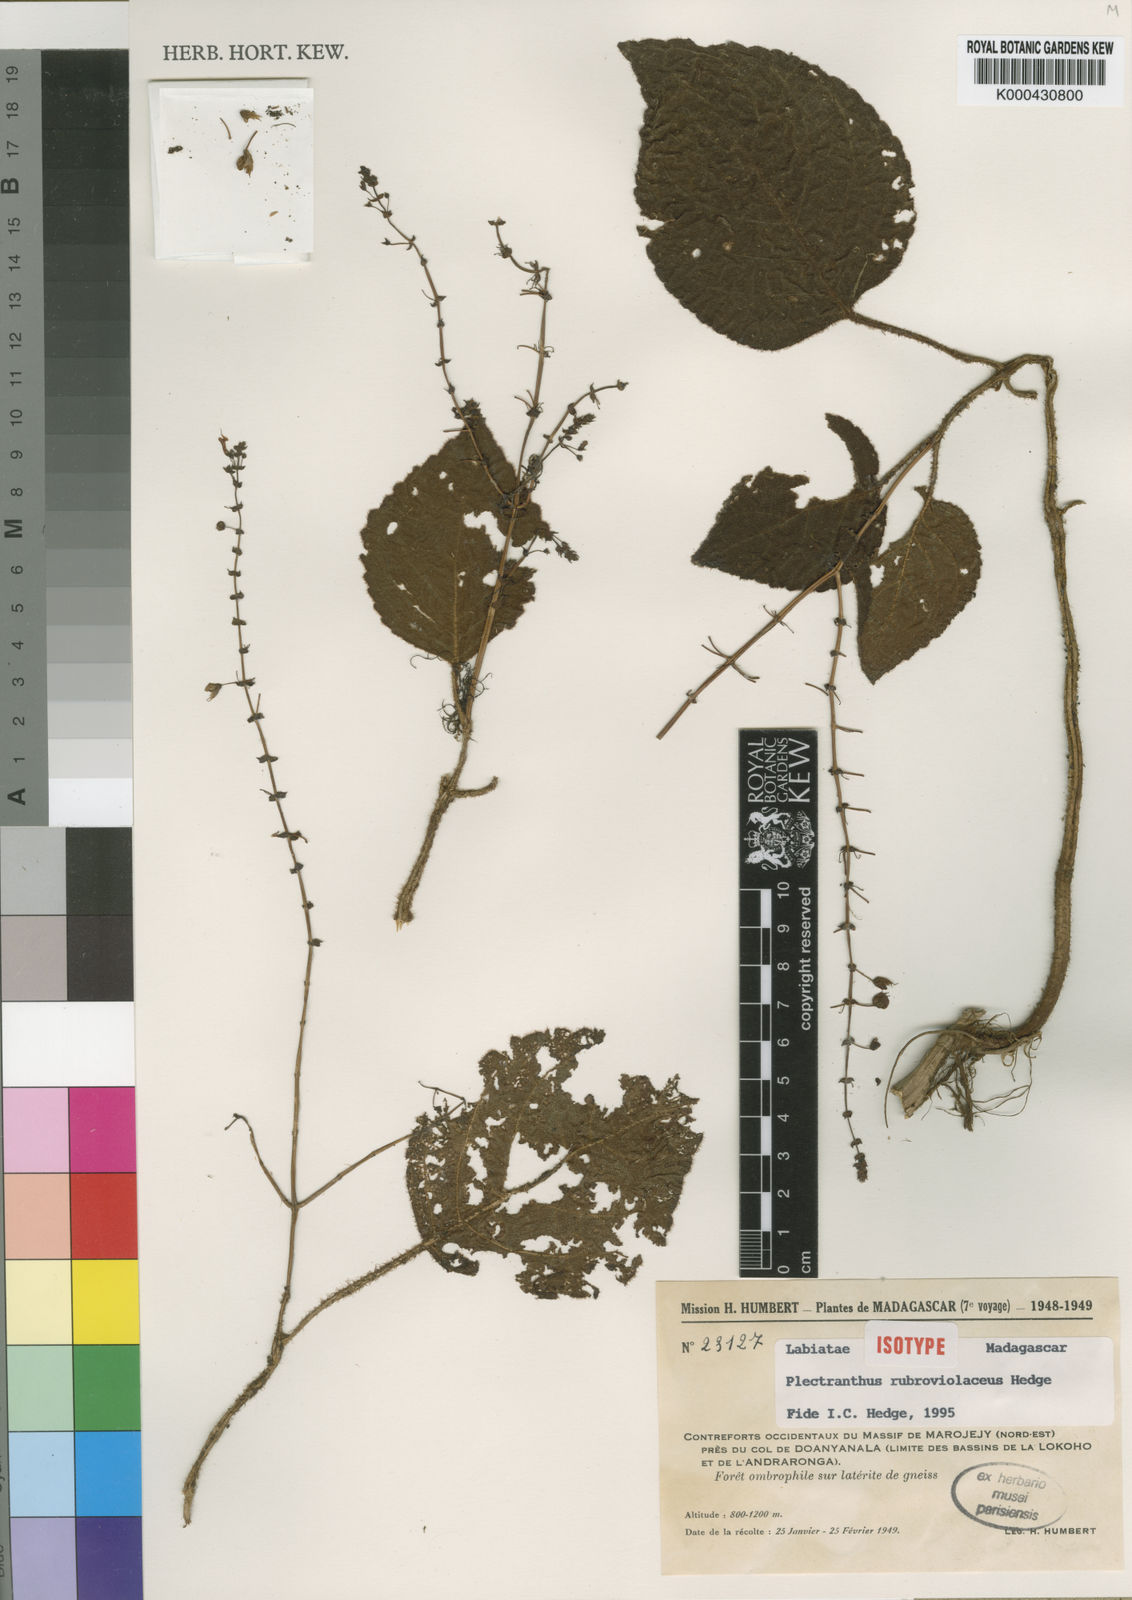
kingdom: Plantae
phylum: Tracheophyta
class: Magnoliopsida
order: Lamiales
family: Lamiaceae
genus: Plectranthus
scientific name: Plectranthus rubroviolaceus
